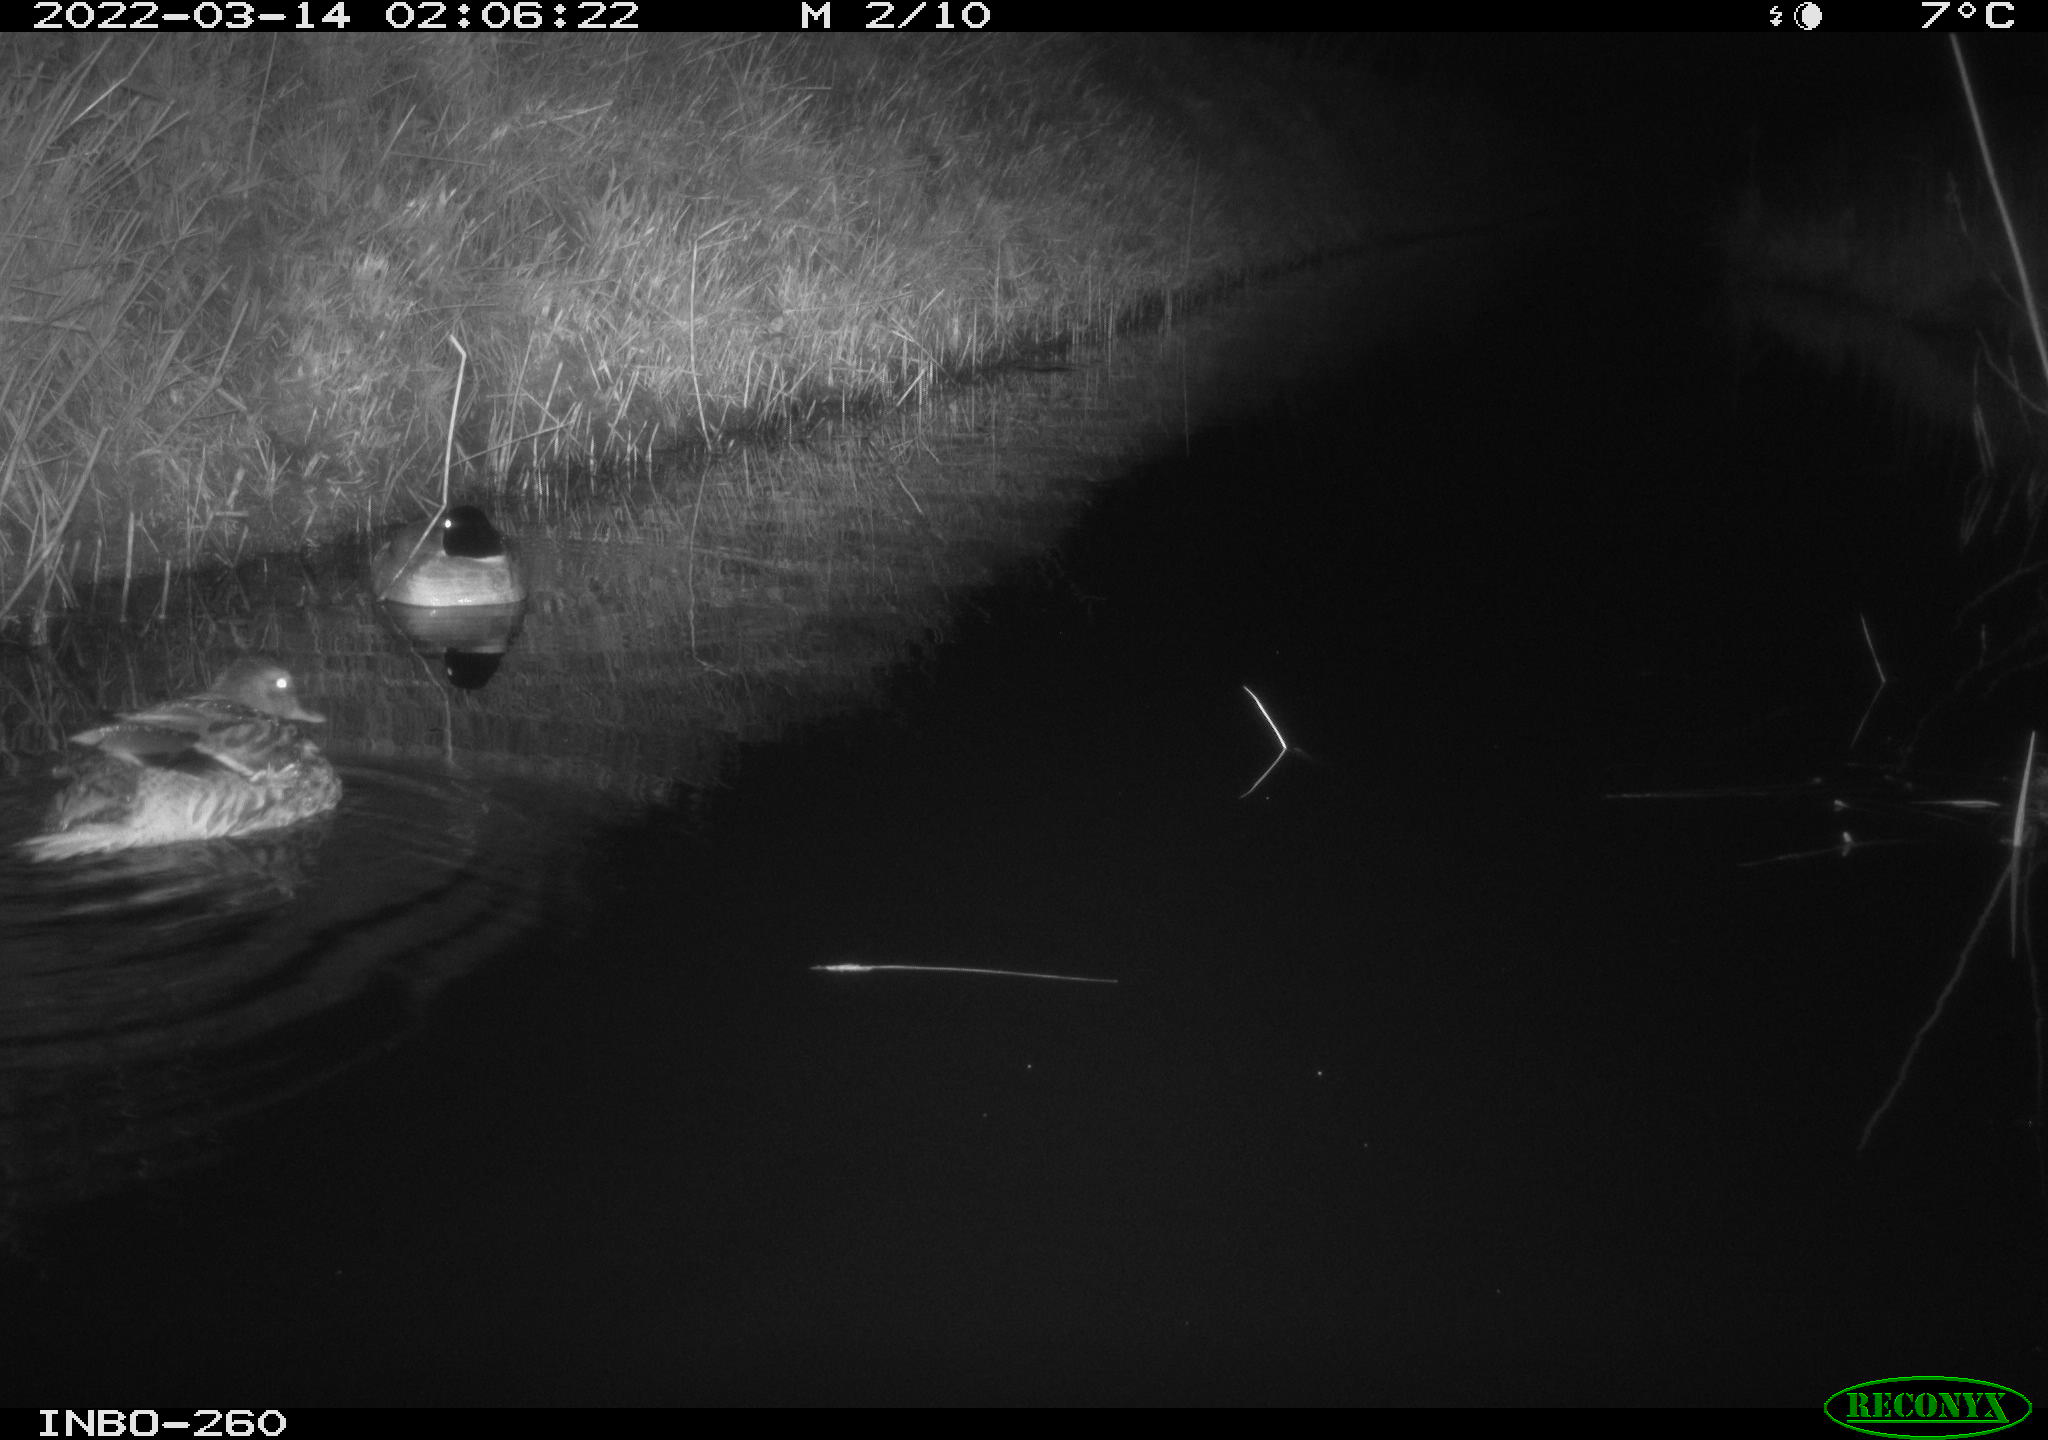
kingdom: Animalia
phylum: Chordata
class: Aves
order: Anseriformes
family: Anatidae
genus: Anas
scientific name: Anas platyrhynchos
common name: Mallard
